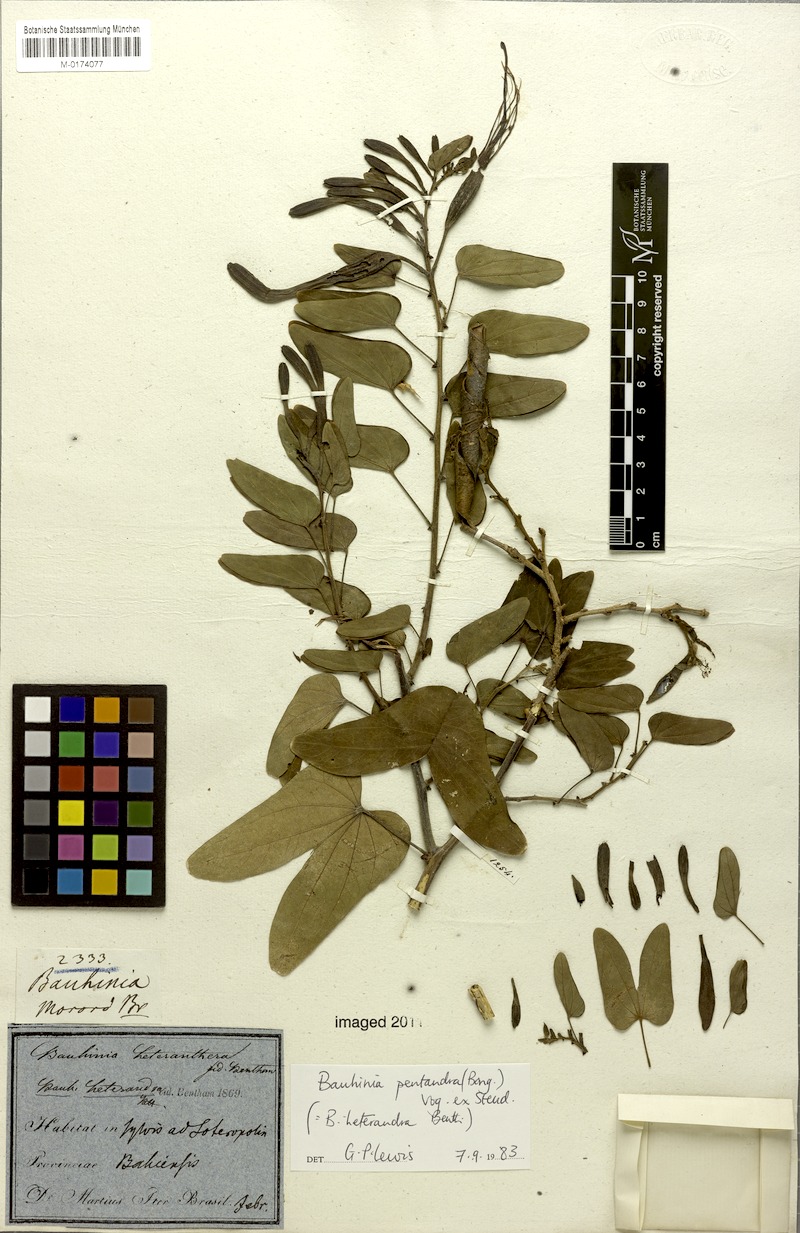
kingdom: Plantae
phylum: Tracheophyta
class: Magnoliopsida
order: Fabales
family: Fabaceae
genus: Bauhinia
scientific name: Bauhinia pentandra
